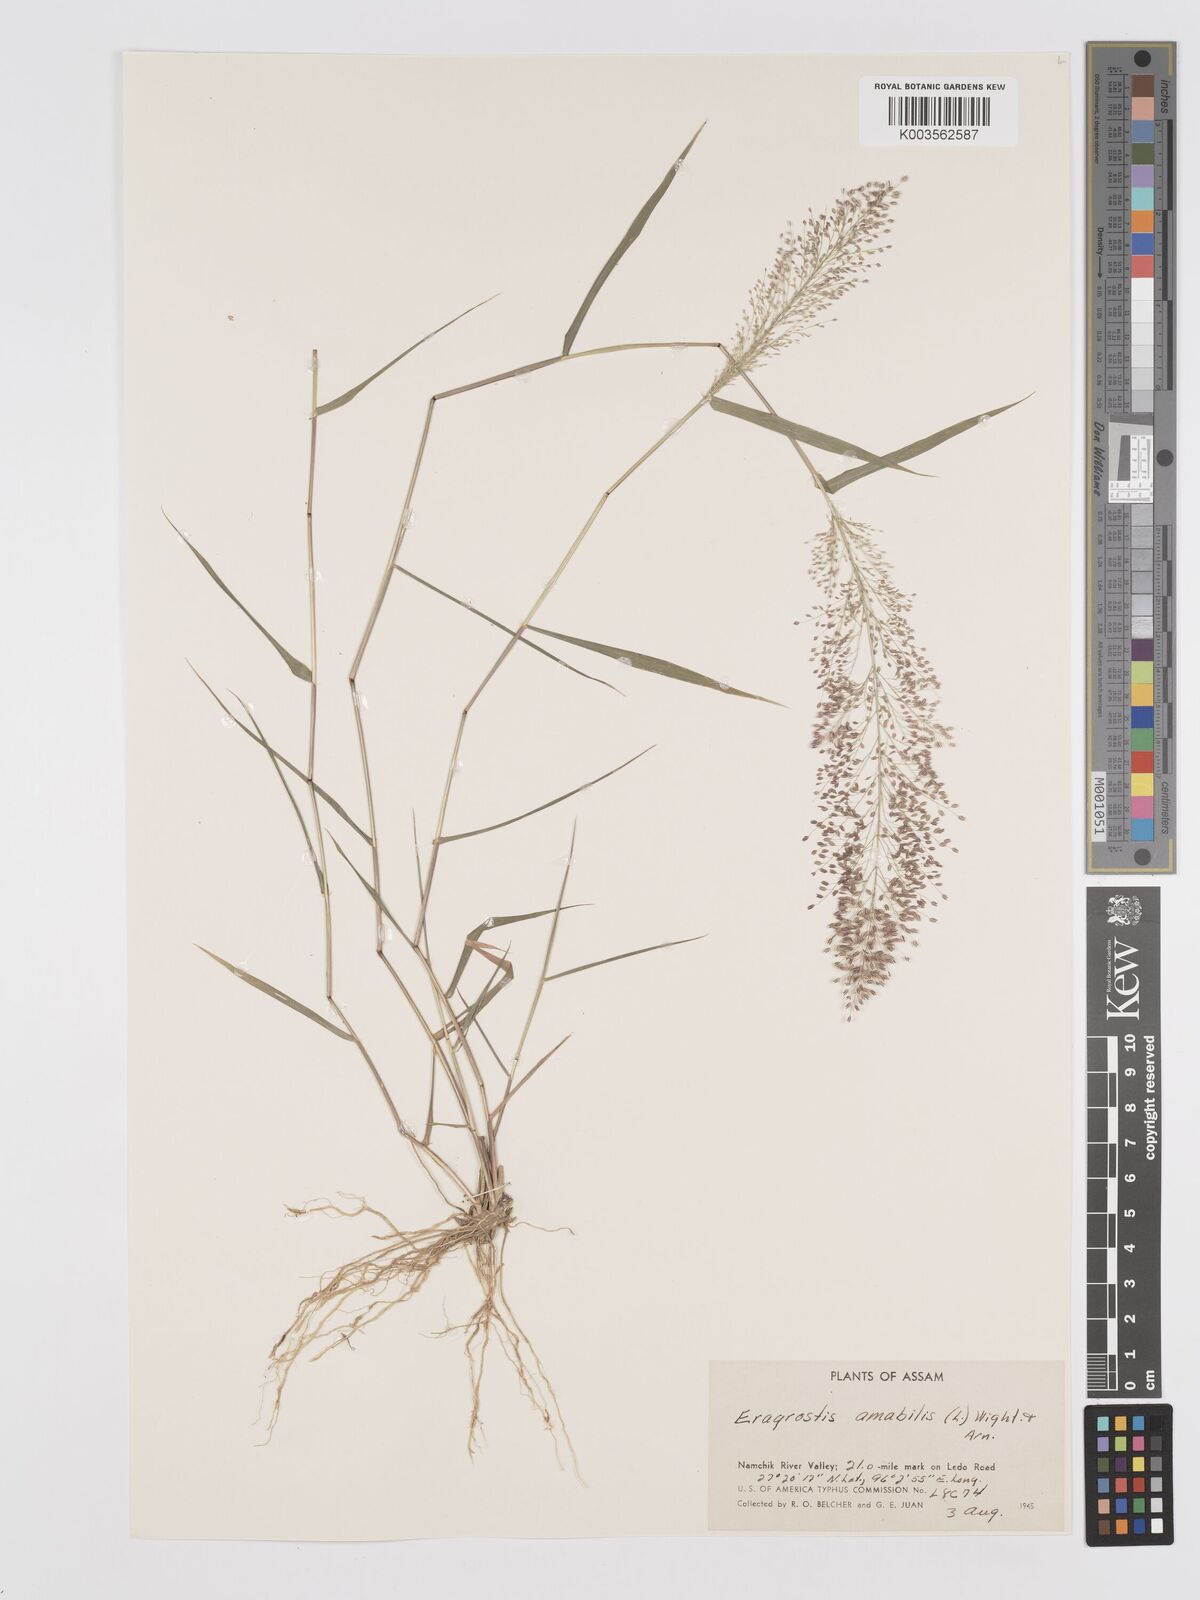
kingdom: Plantae
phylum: Tracheophyta
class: Liliopsida
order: Poales
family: Poaceae
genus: Eragrostis
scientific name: Eragrostis tenella
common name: Japanese lovegrass
